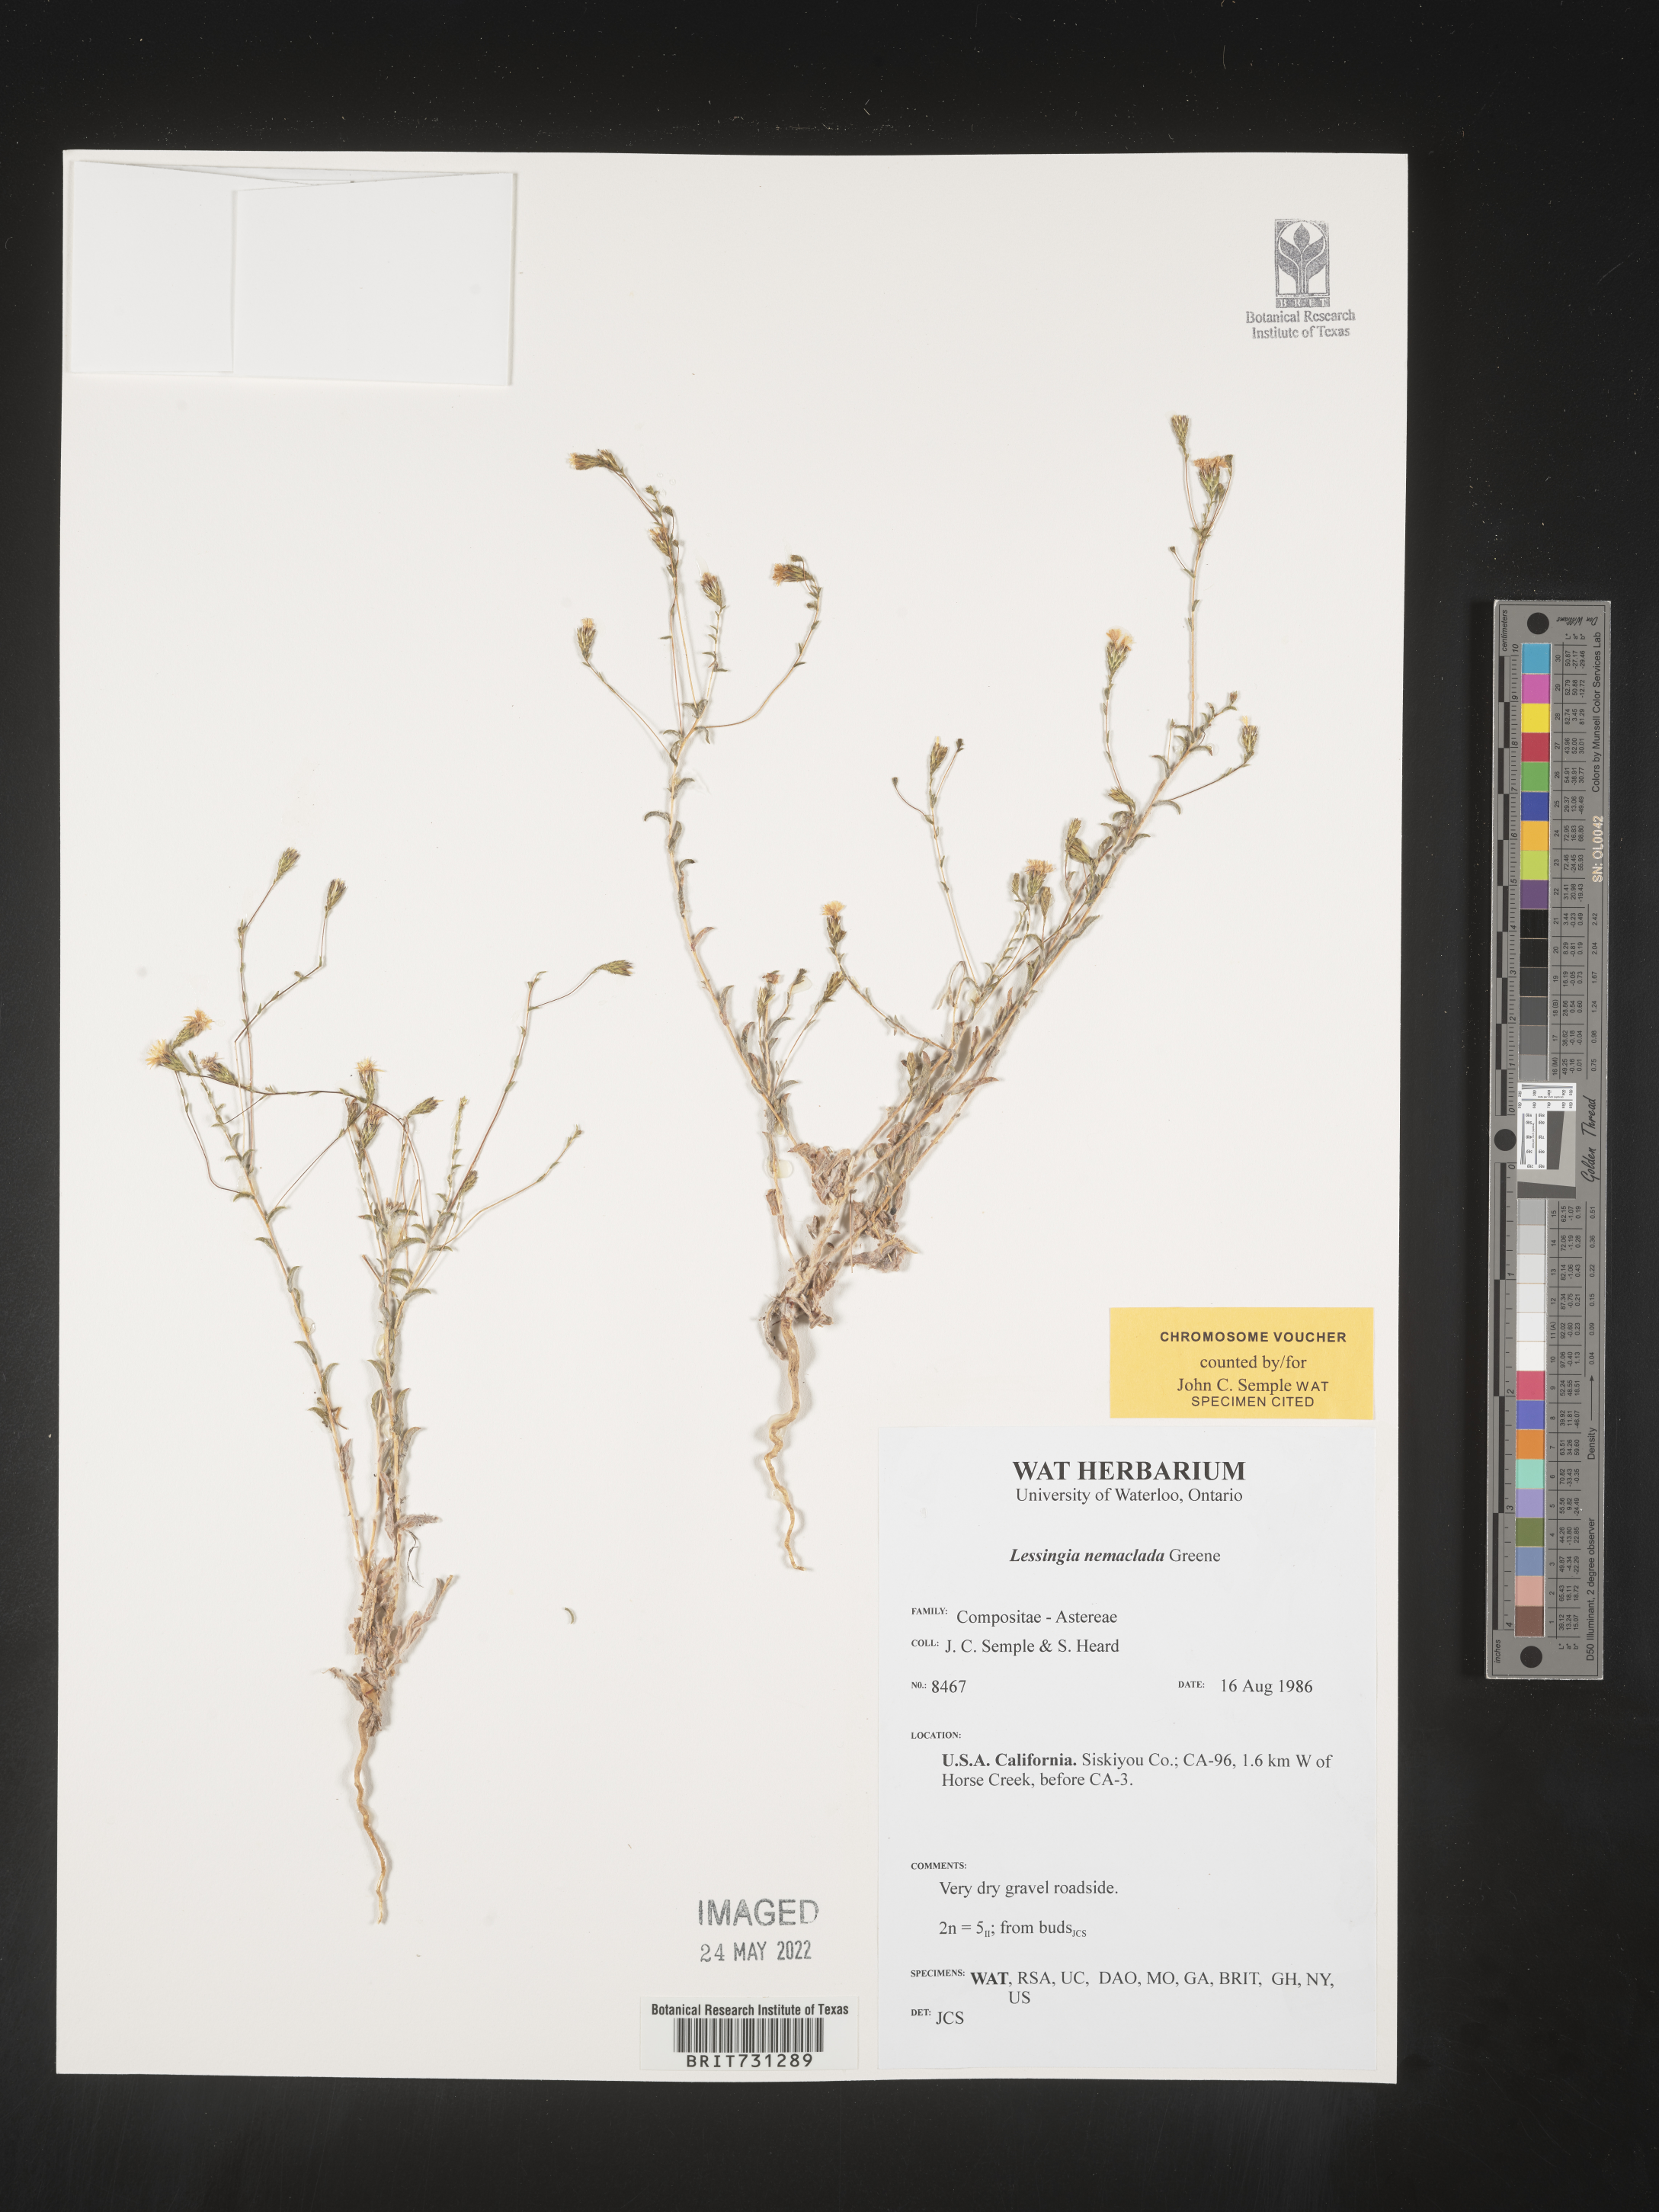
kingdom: Plantae
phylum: Tracheophyta
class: Magnoliopsida
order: Asterales
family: Asteraceae
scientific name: Asteraceae
